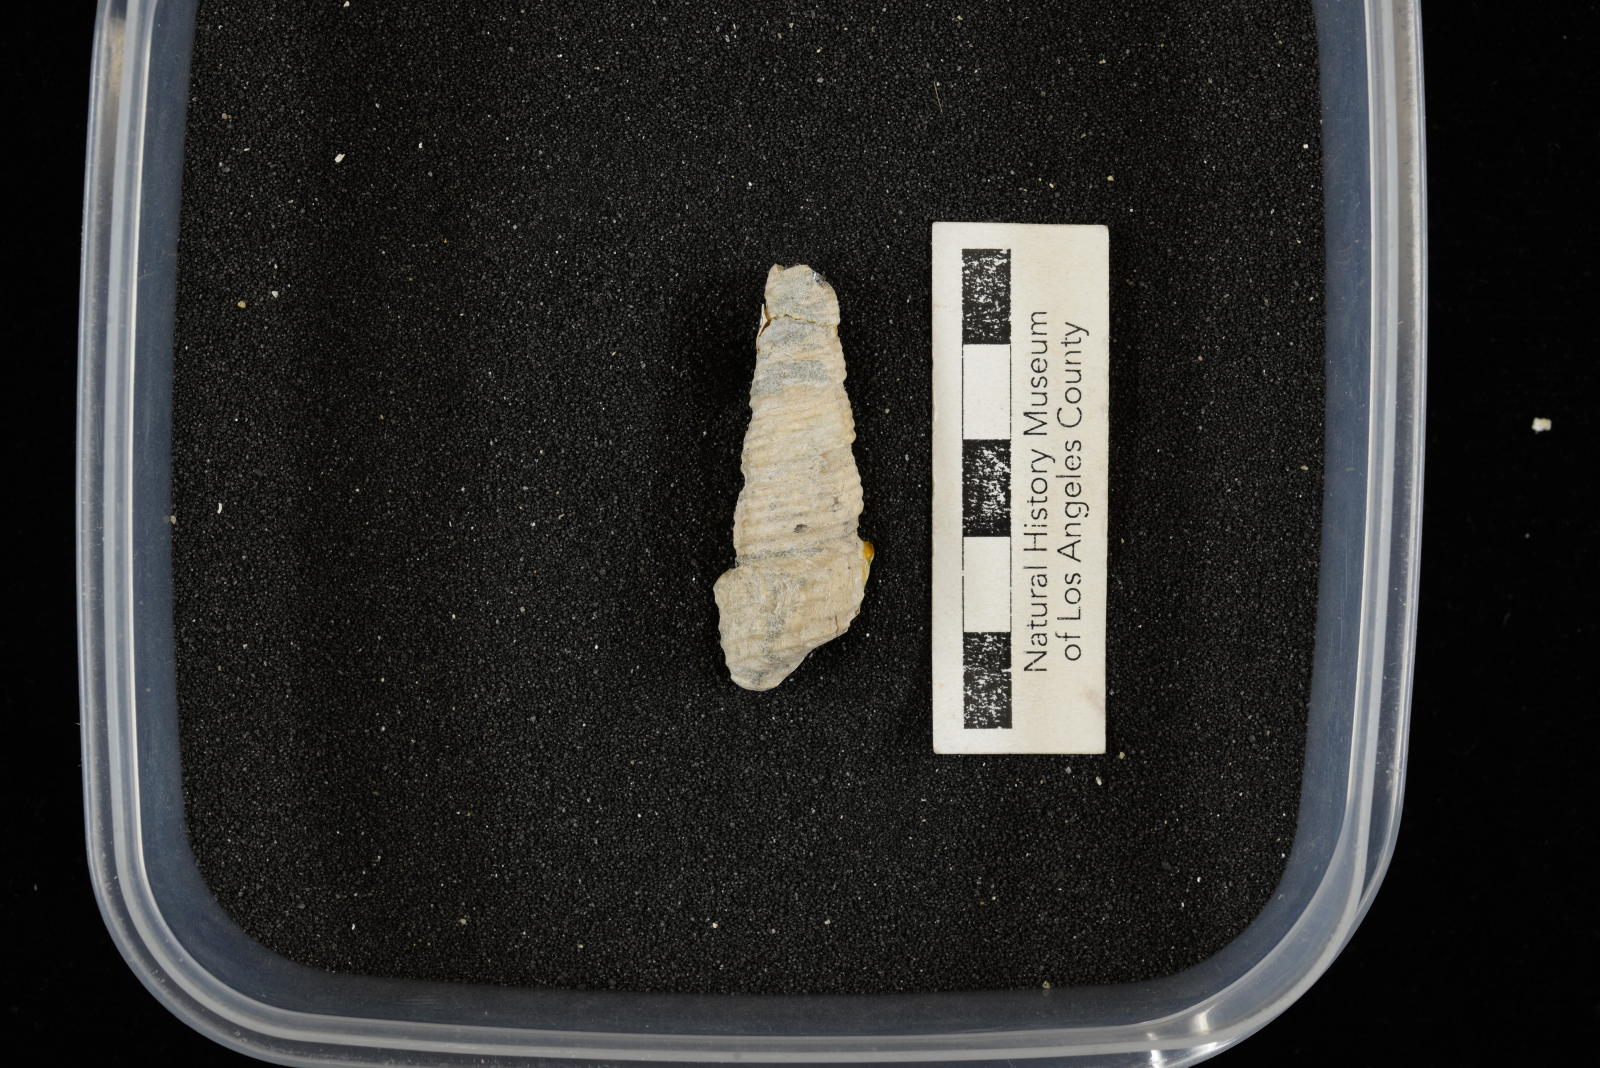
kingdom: Animalia
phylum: Mollusca
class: Gastropoda
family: Turritellidae
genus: Turritella
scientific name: Turritella chicoensis
